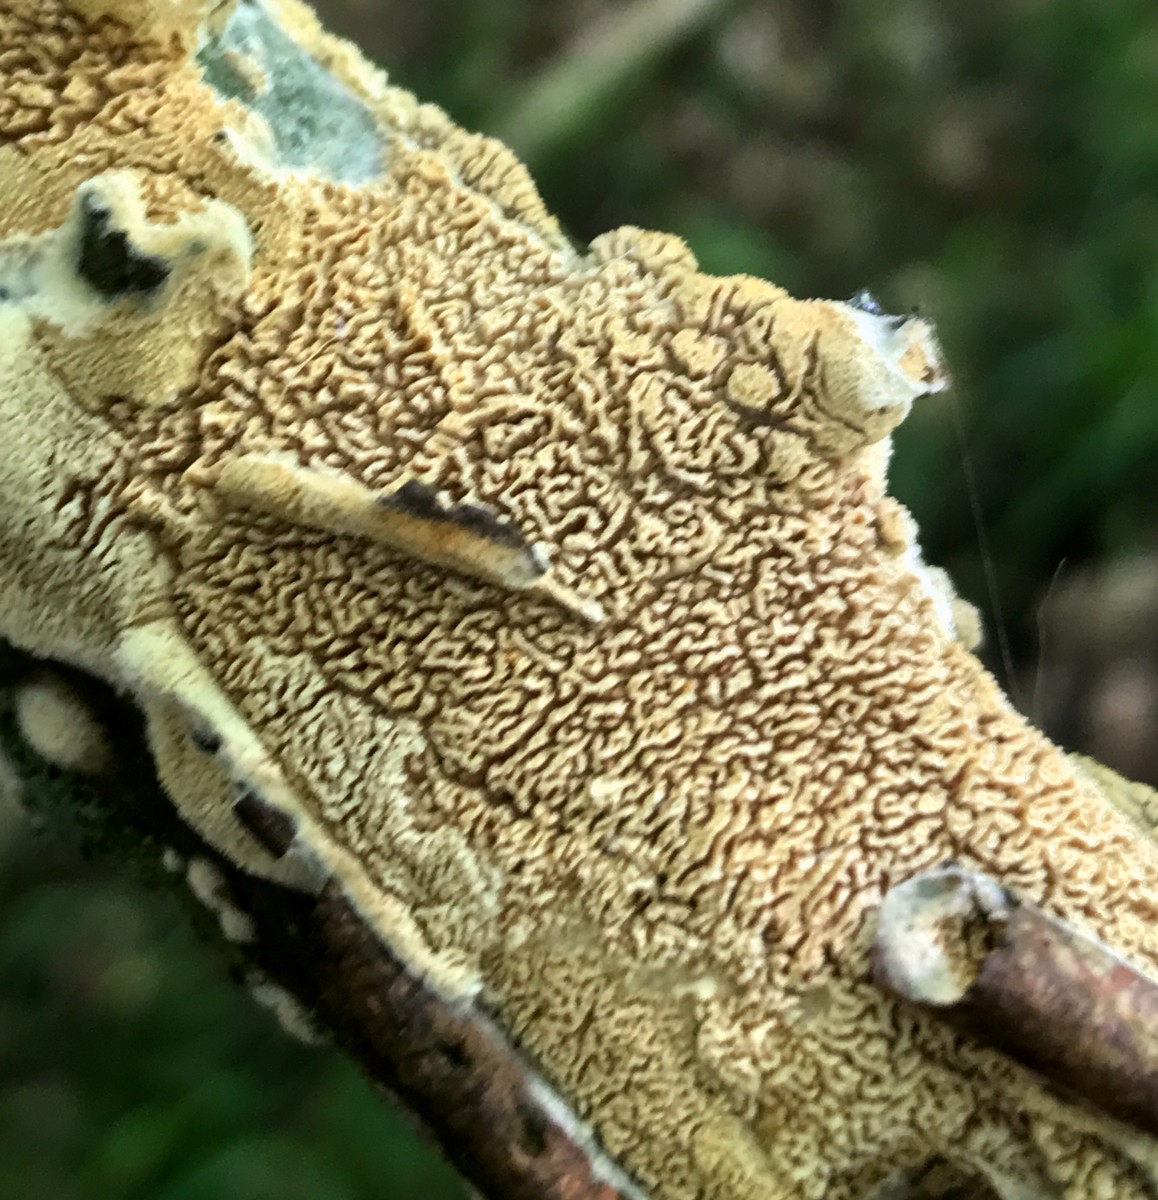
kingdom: Fungi
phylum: Basidiomycota
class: Agaricomycetes
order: Hymenochaetales
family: Schizoporaceae
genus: Xylodon
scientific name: Xylodon
